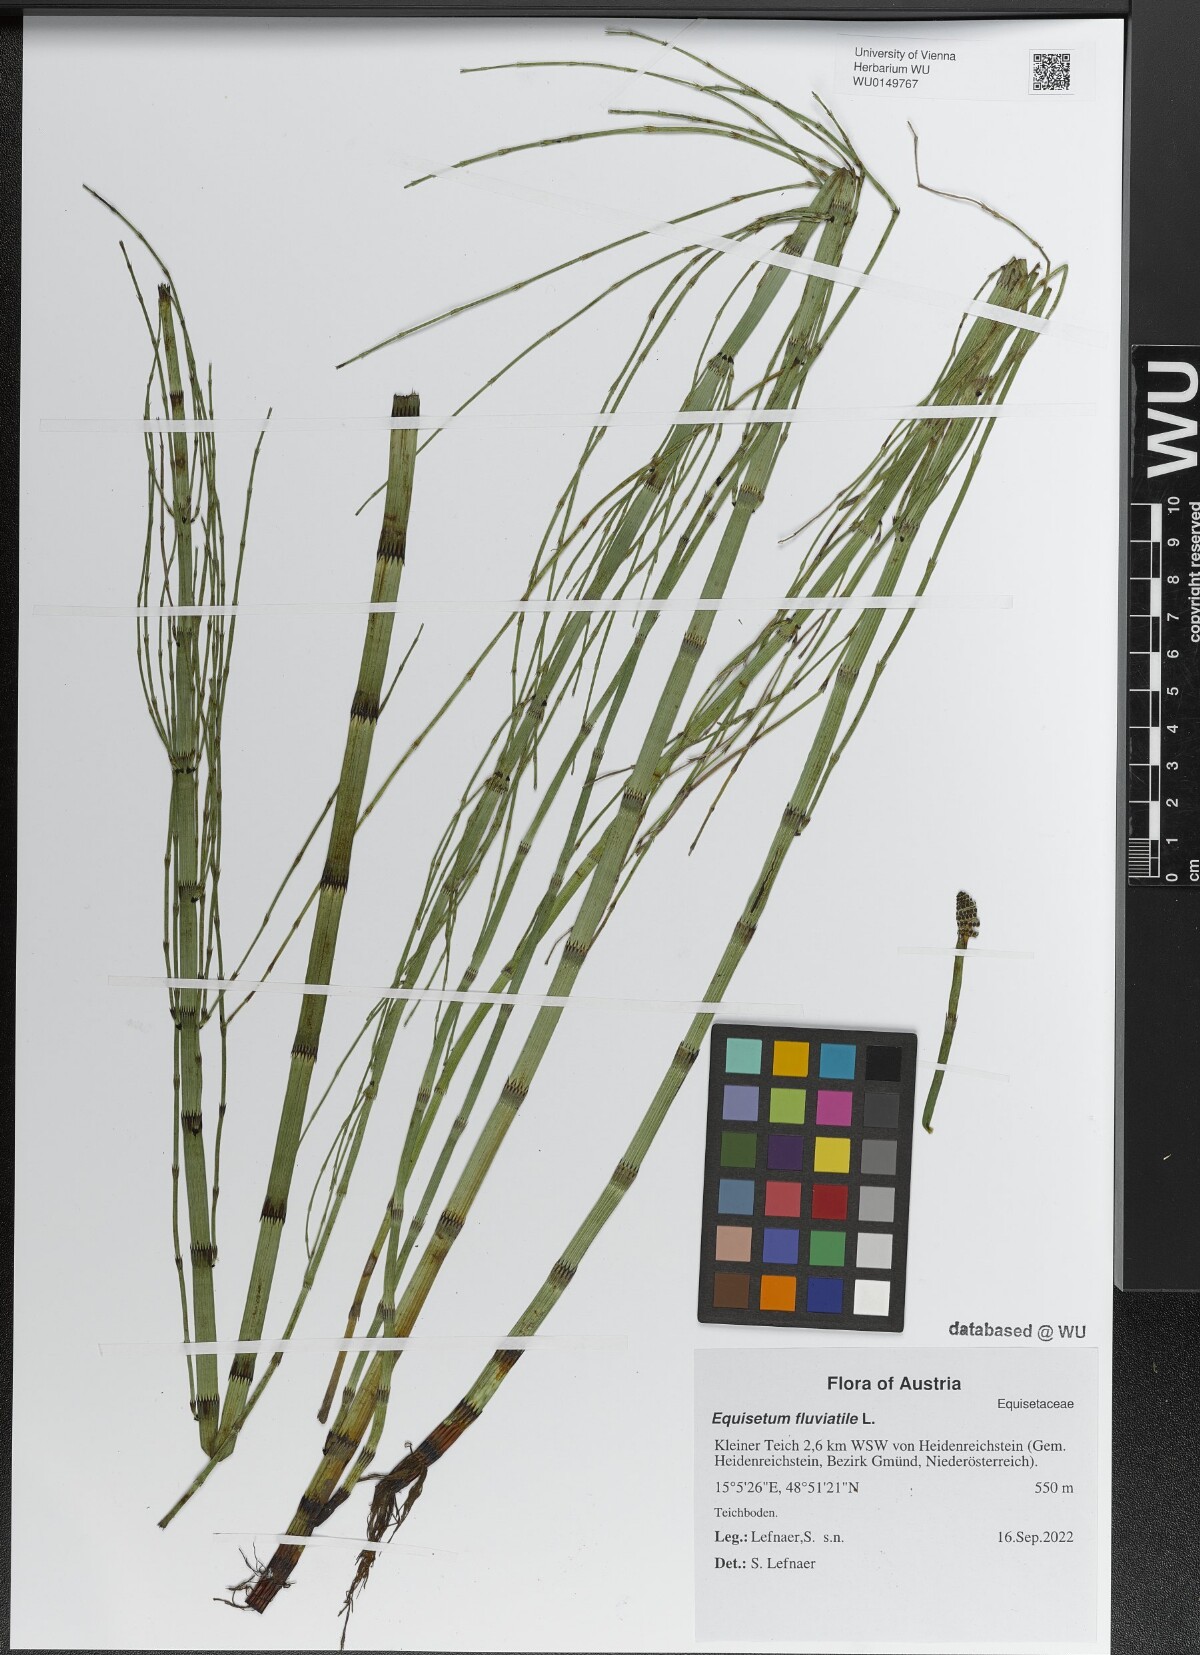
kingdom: Plantae
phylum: Tracheophyta
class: Polypodiopsida
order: Equisetales
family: Equisetaceae
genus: Equisetum
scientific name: Equisetum fluviatile
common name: Water horsetail
